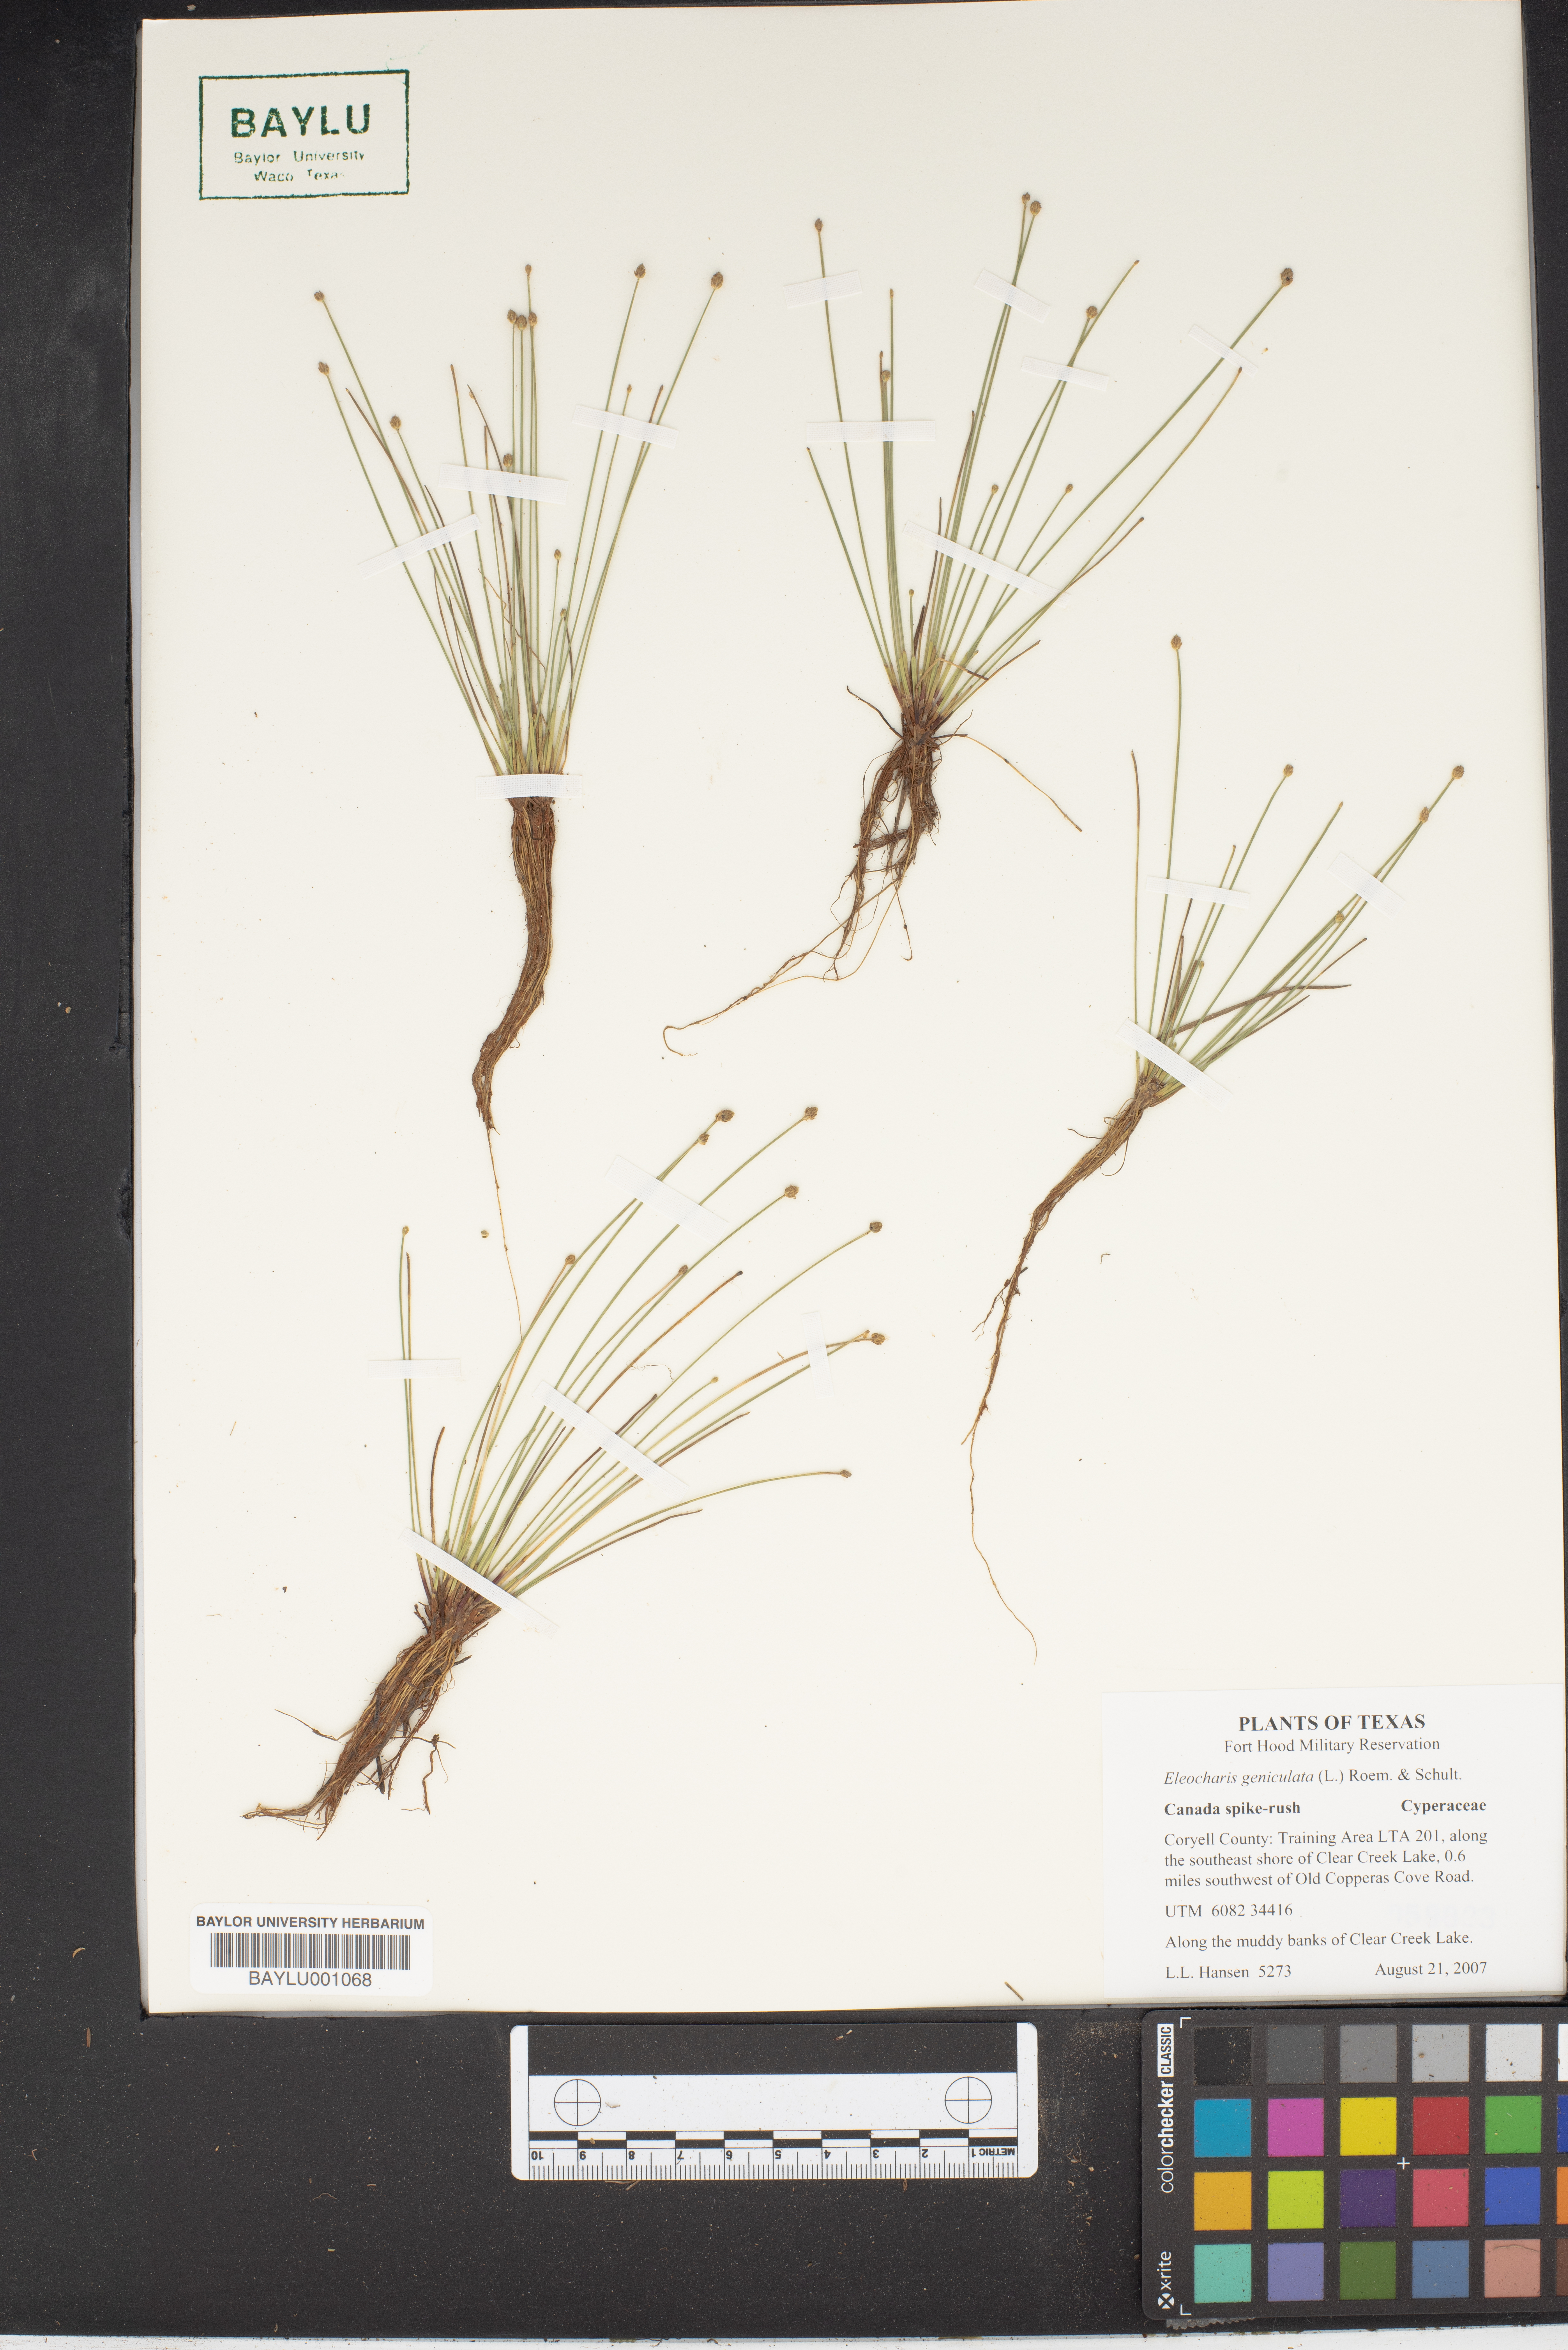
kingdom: Plantae
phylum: Tracheophyta
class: Liliopsida
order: Poales
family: Cyperaceae
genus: Eleocharis
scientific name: Eleocharis geniculata
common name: Canada spikesedge
